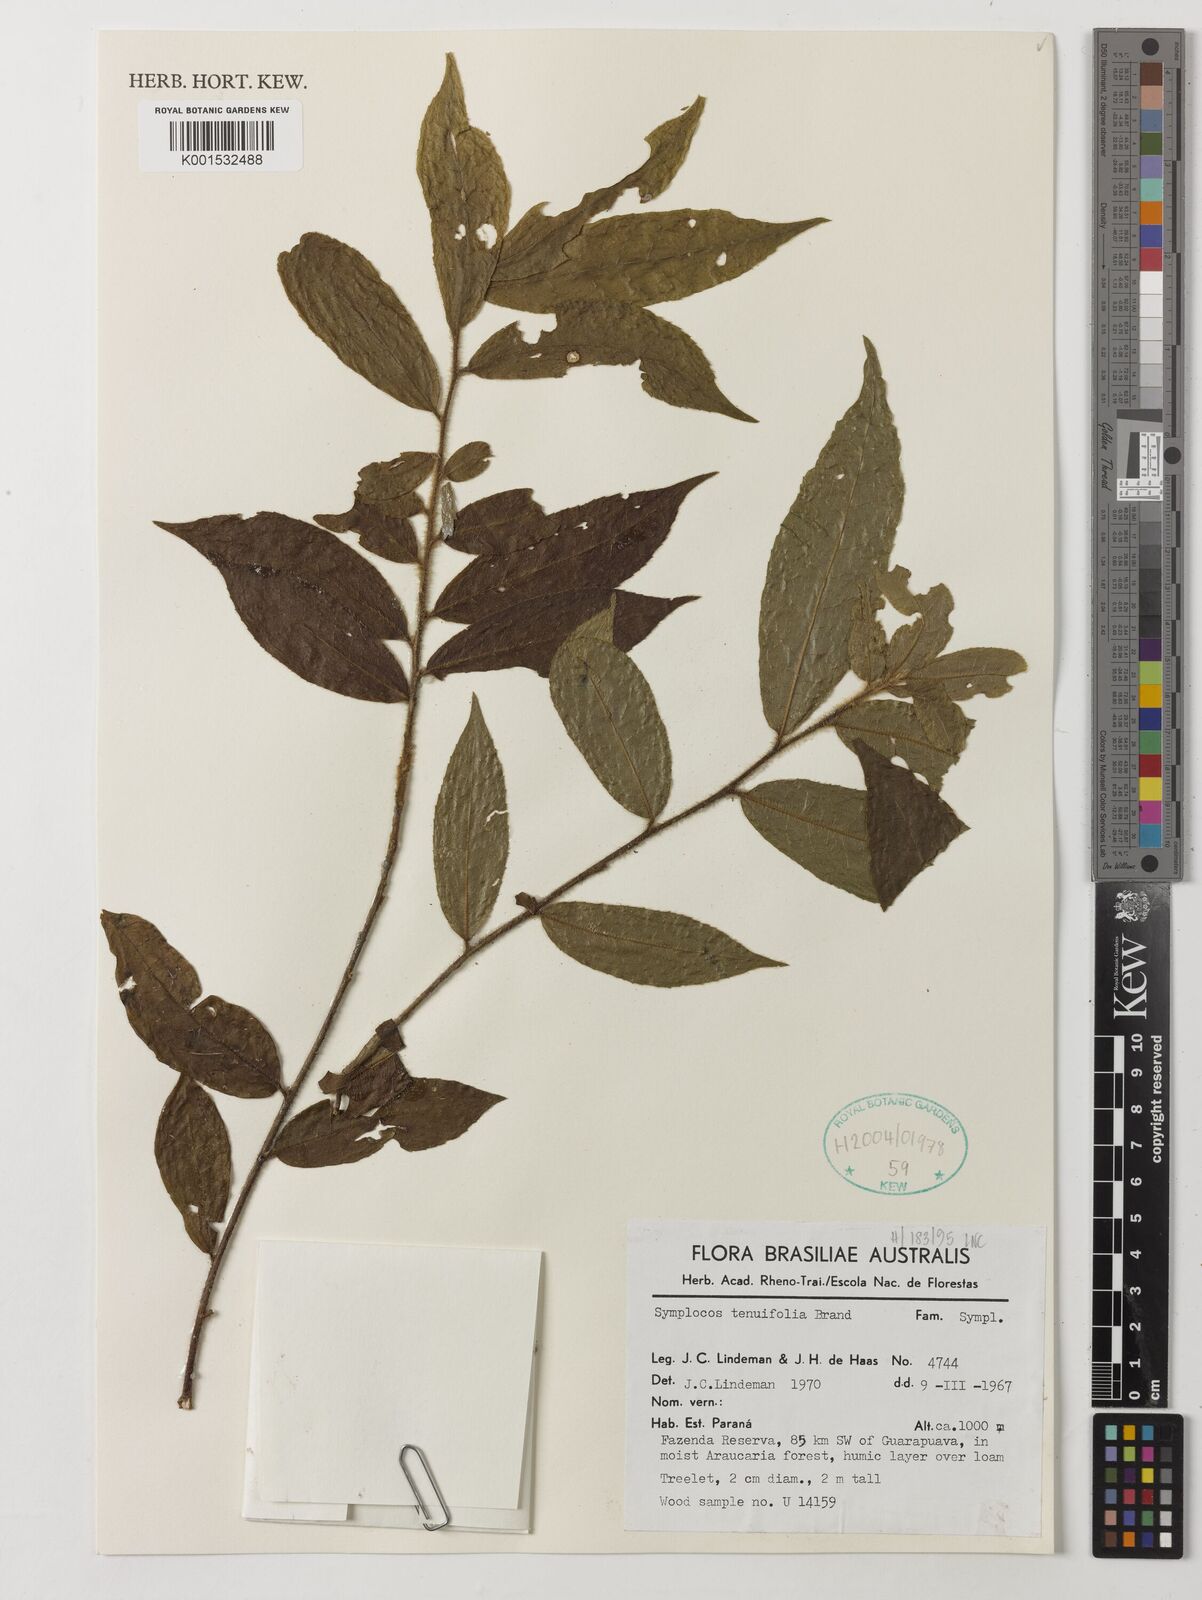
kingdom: Plantae
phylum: Tracheophyta
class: Magnoliopsida
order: Ericales
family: Symplocaceae
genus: Symplocos
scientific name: Symplocos tenuifolia
